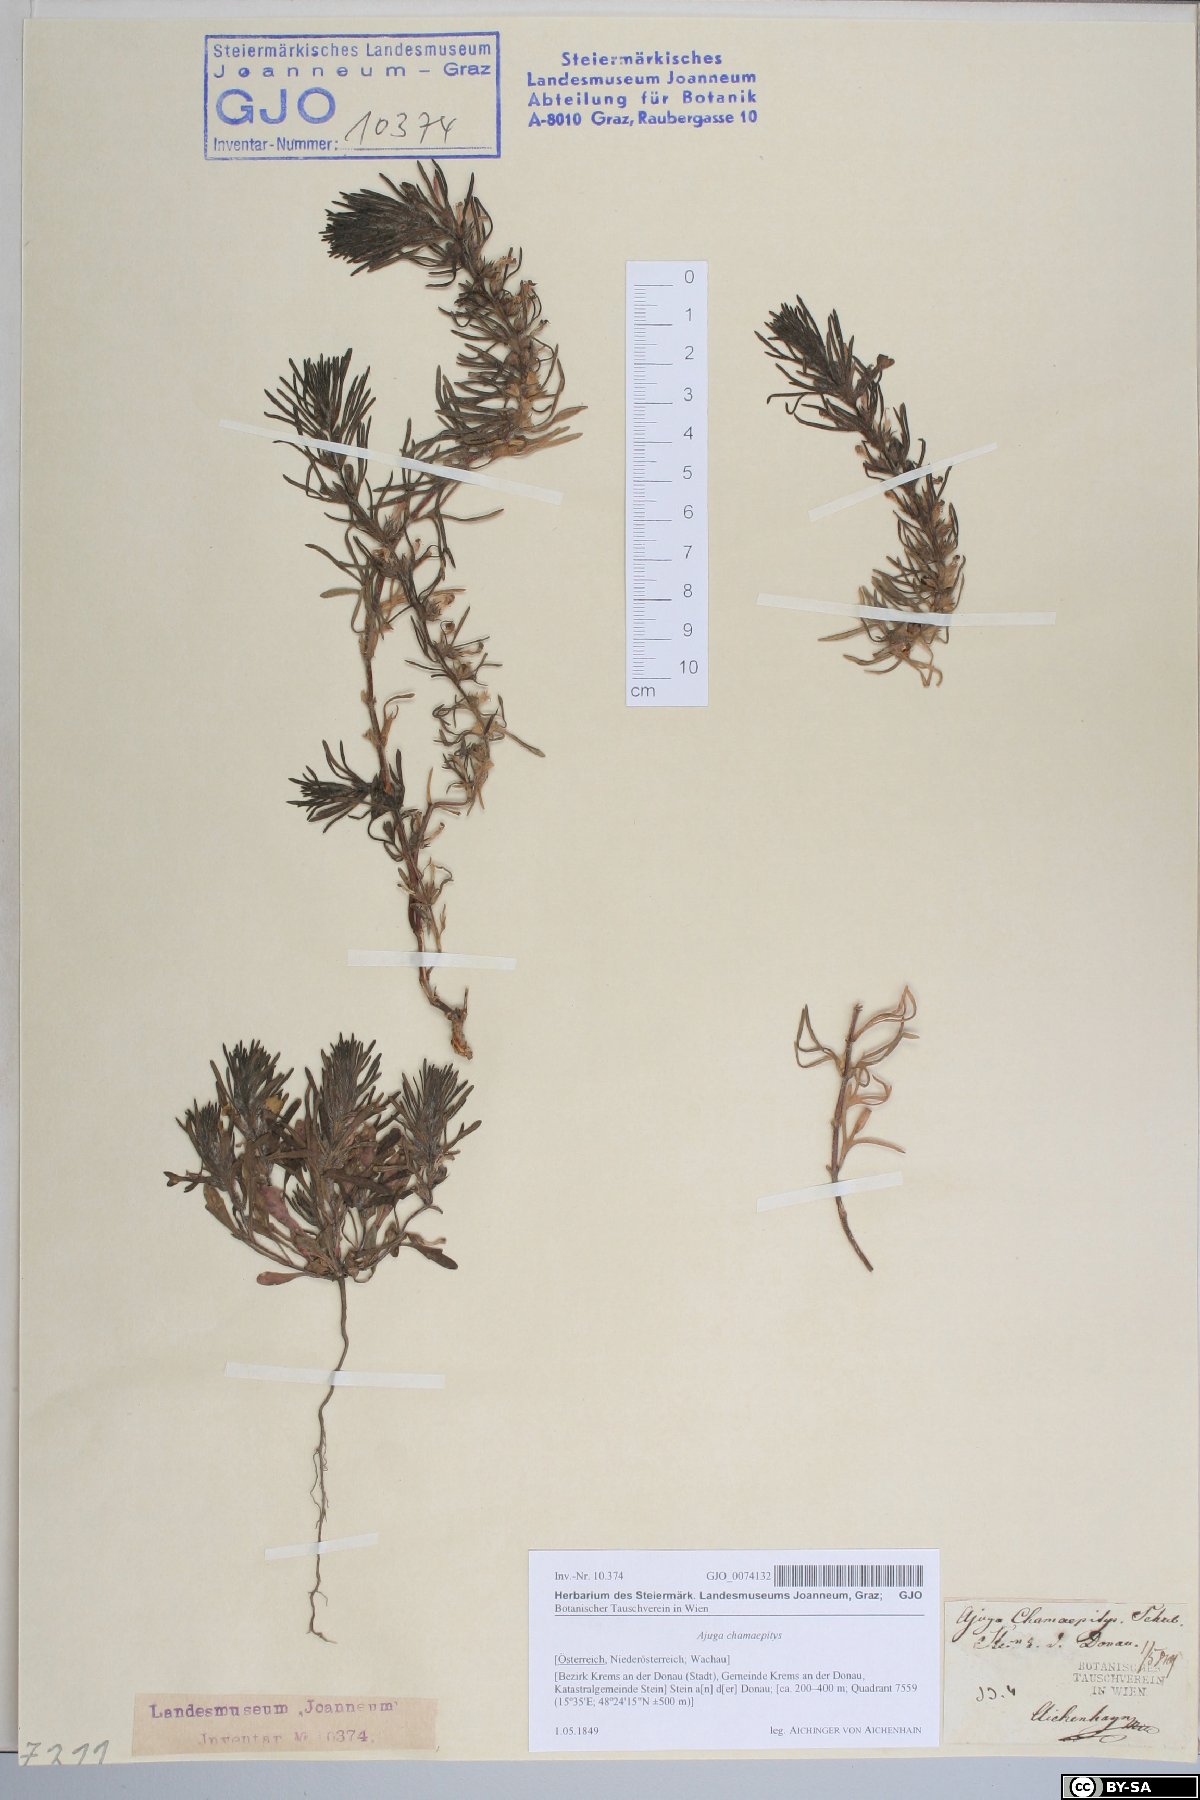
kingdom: Plantae
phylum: Tracheophyta
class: Magnoliopsida
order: Lamiales
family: Lamiaceae
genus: Ajuga
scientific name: Ajuga chamaepitys
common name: Ground-pine
